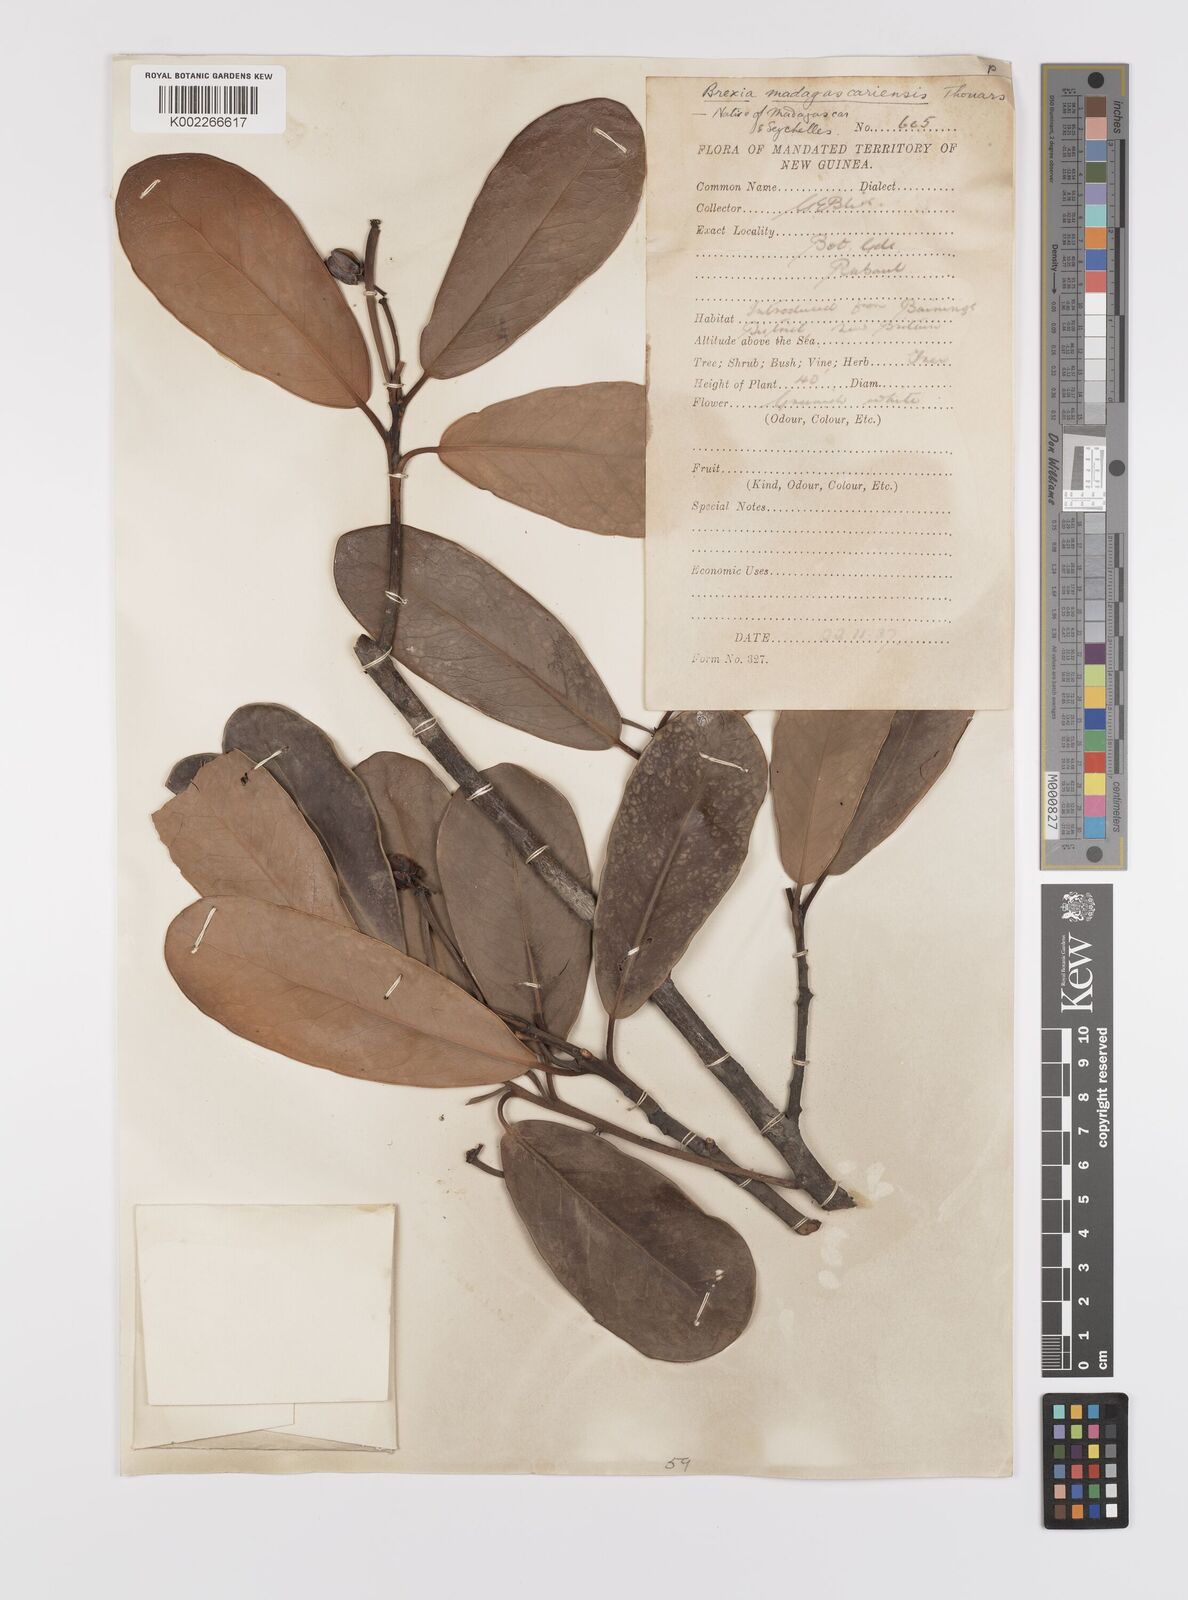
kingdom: Plantae
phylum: Tracheophyta
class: Magnoliopsida
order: Celastrales
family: Celastraceae
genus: Brexia
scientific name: Brexia madagascariensis
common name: Brexia
